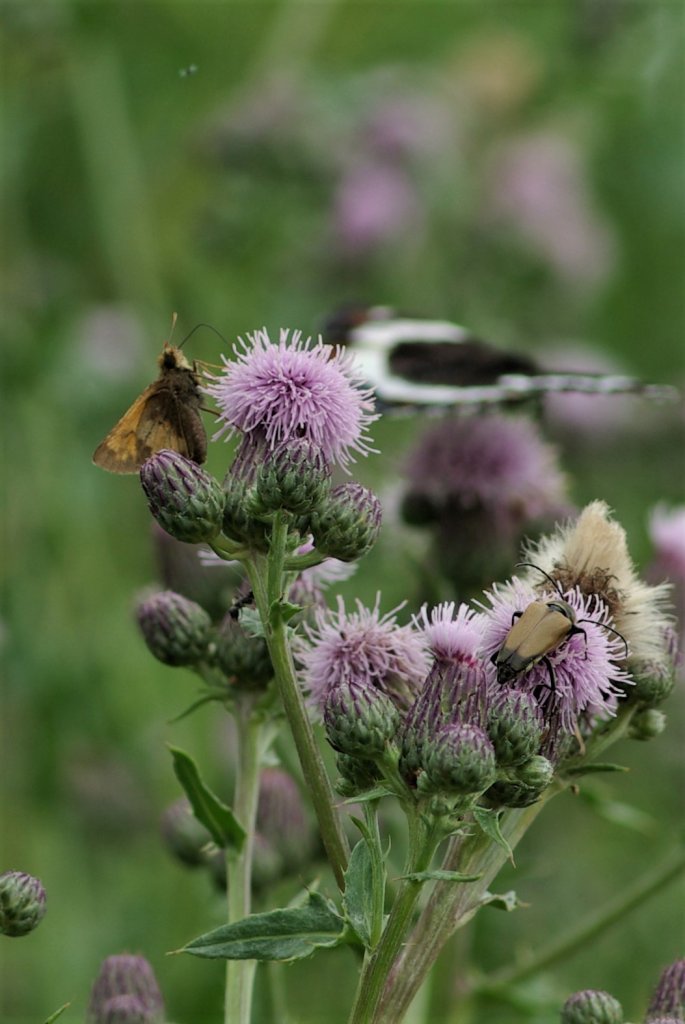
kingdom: Animalia
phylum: Arthropoda
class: Insecta
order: Lepidoptera
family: Hesperiidae
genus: Lon
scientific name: Lon hobomok
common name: Hobomok Skipper
